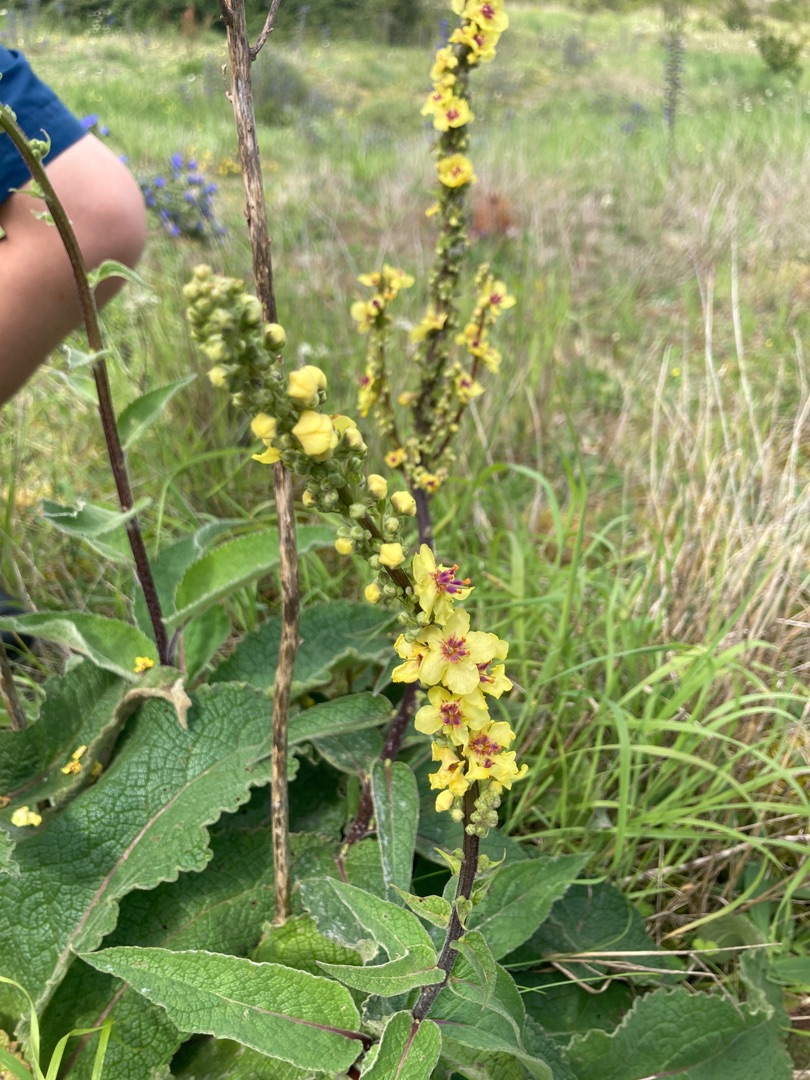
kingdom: Plantae
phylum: Tracheophyta
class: Magnoliopsida
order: Lamiales
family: Scrophulariaceae
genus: Verbascum
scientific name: Verbascum nigrum
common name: Mørk kongelys
